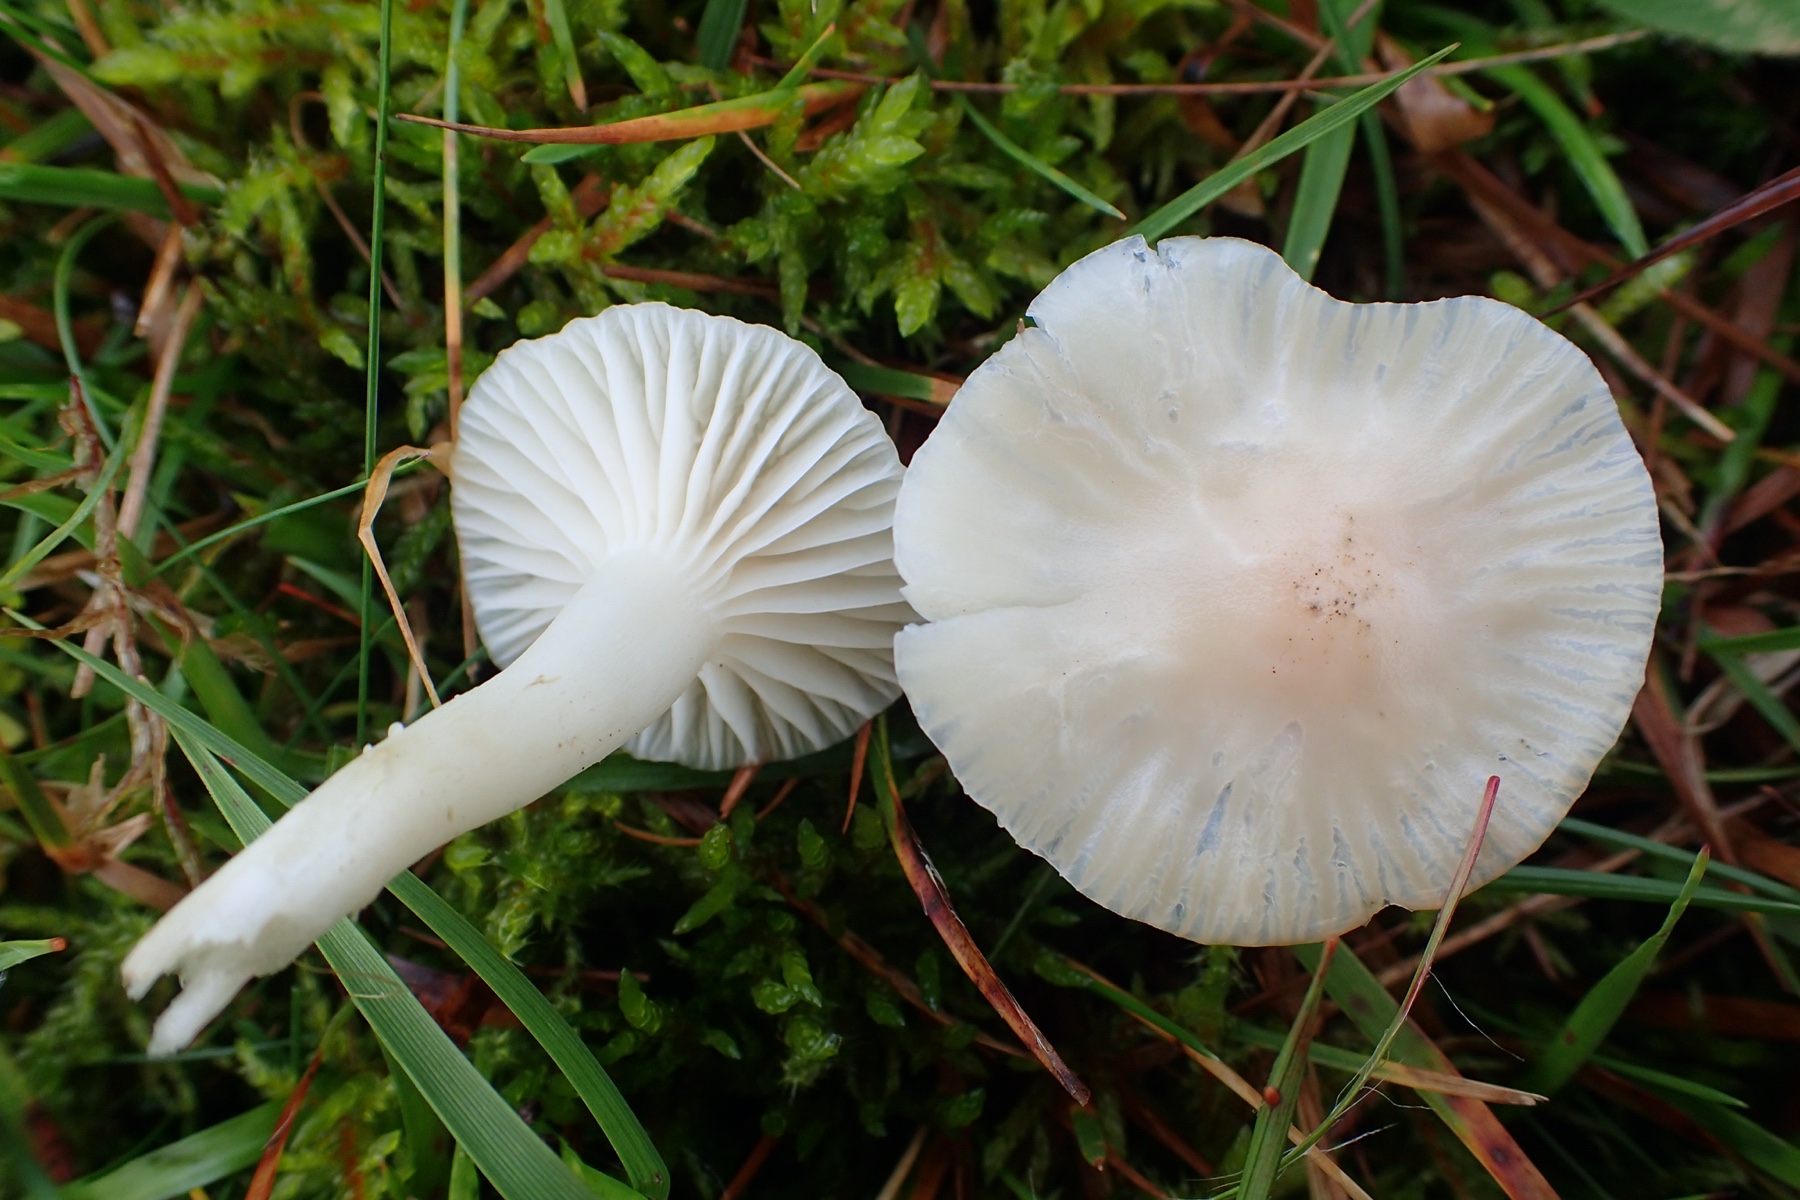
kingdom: Fungi
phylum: Basidiomycota
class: Agaricomycetes
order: Agaricales
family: Hygrophoraceae
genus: Cuphophyllus
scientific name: Cuphophyllus
